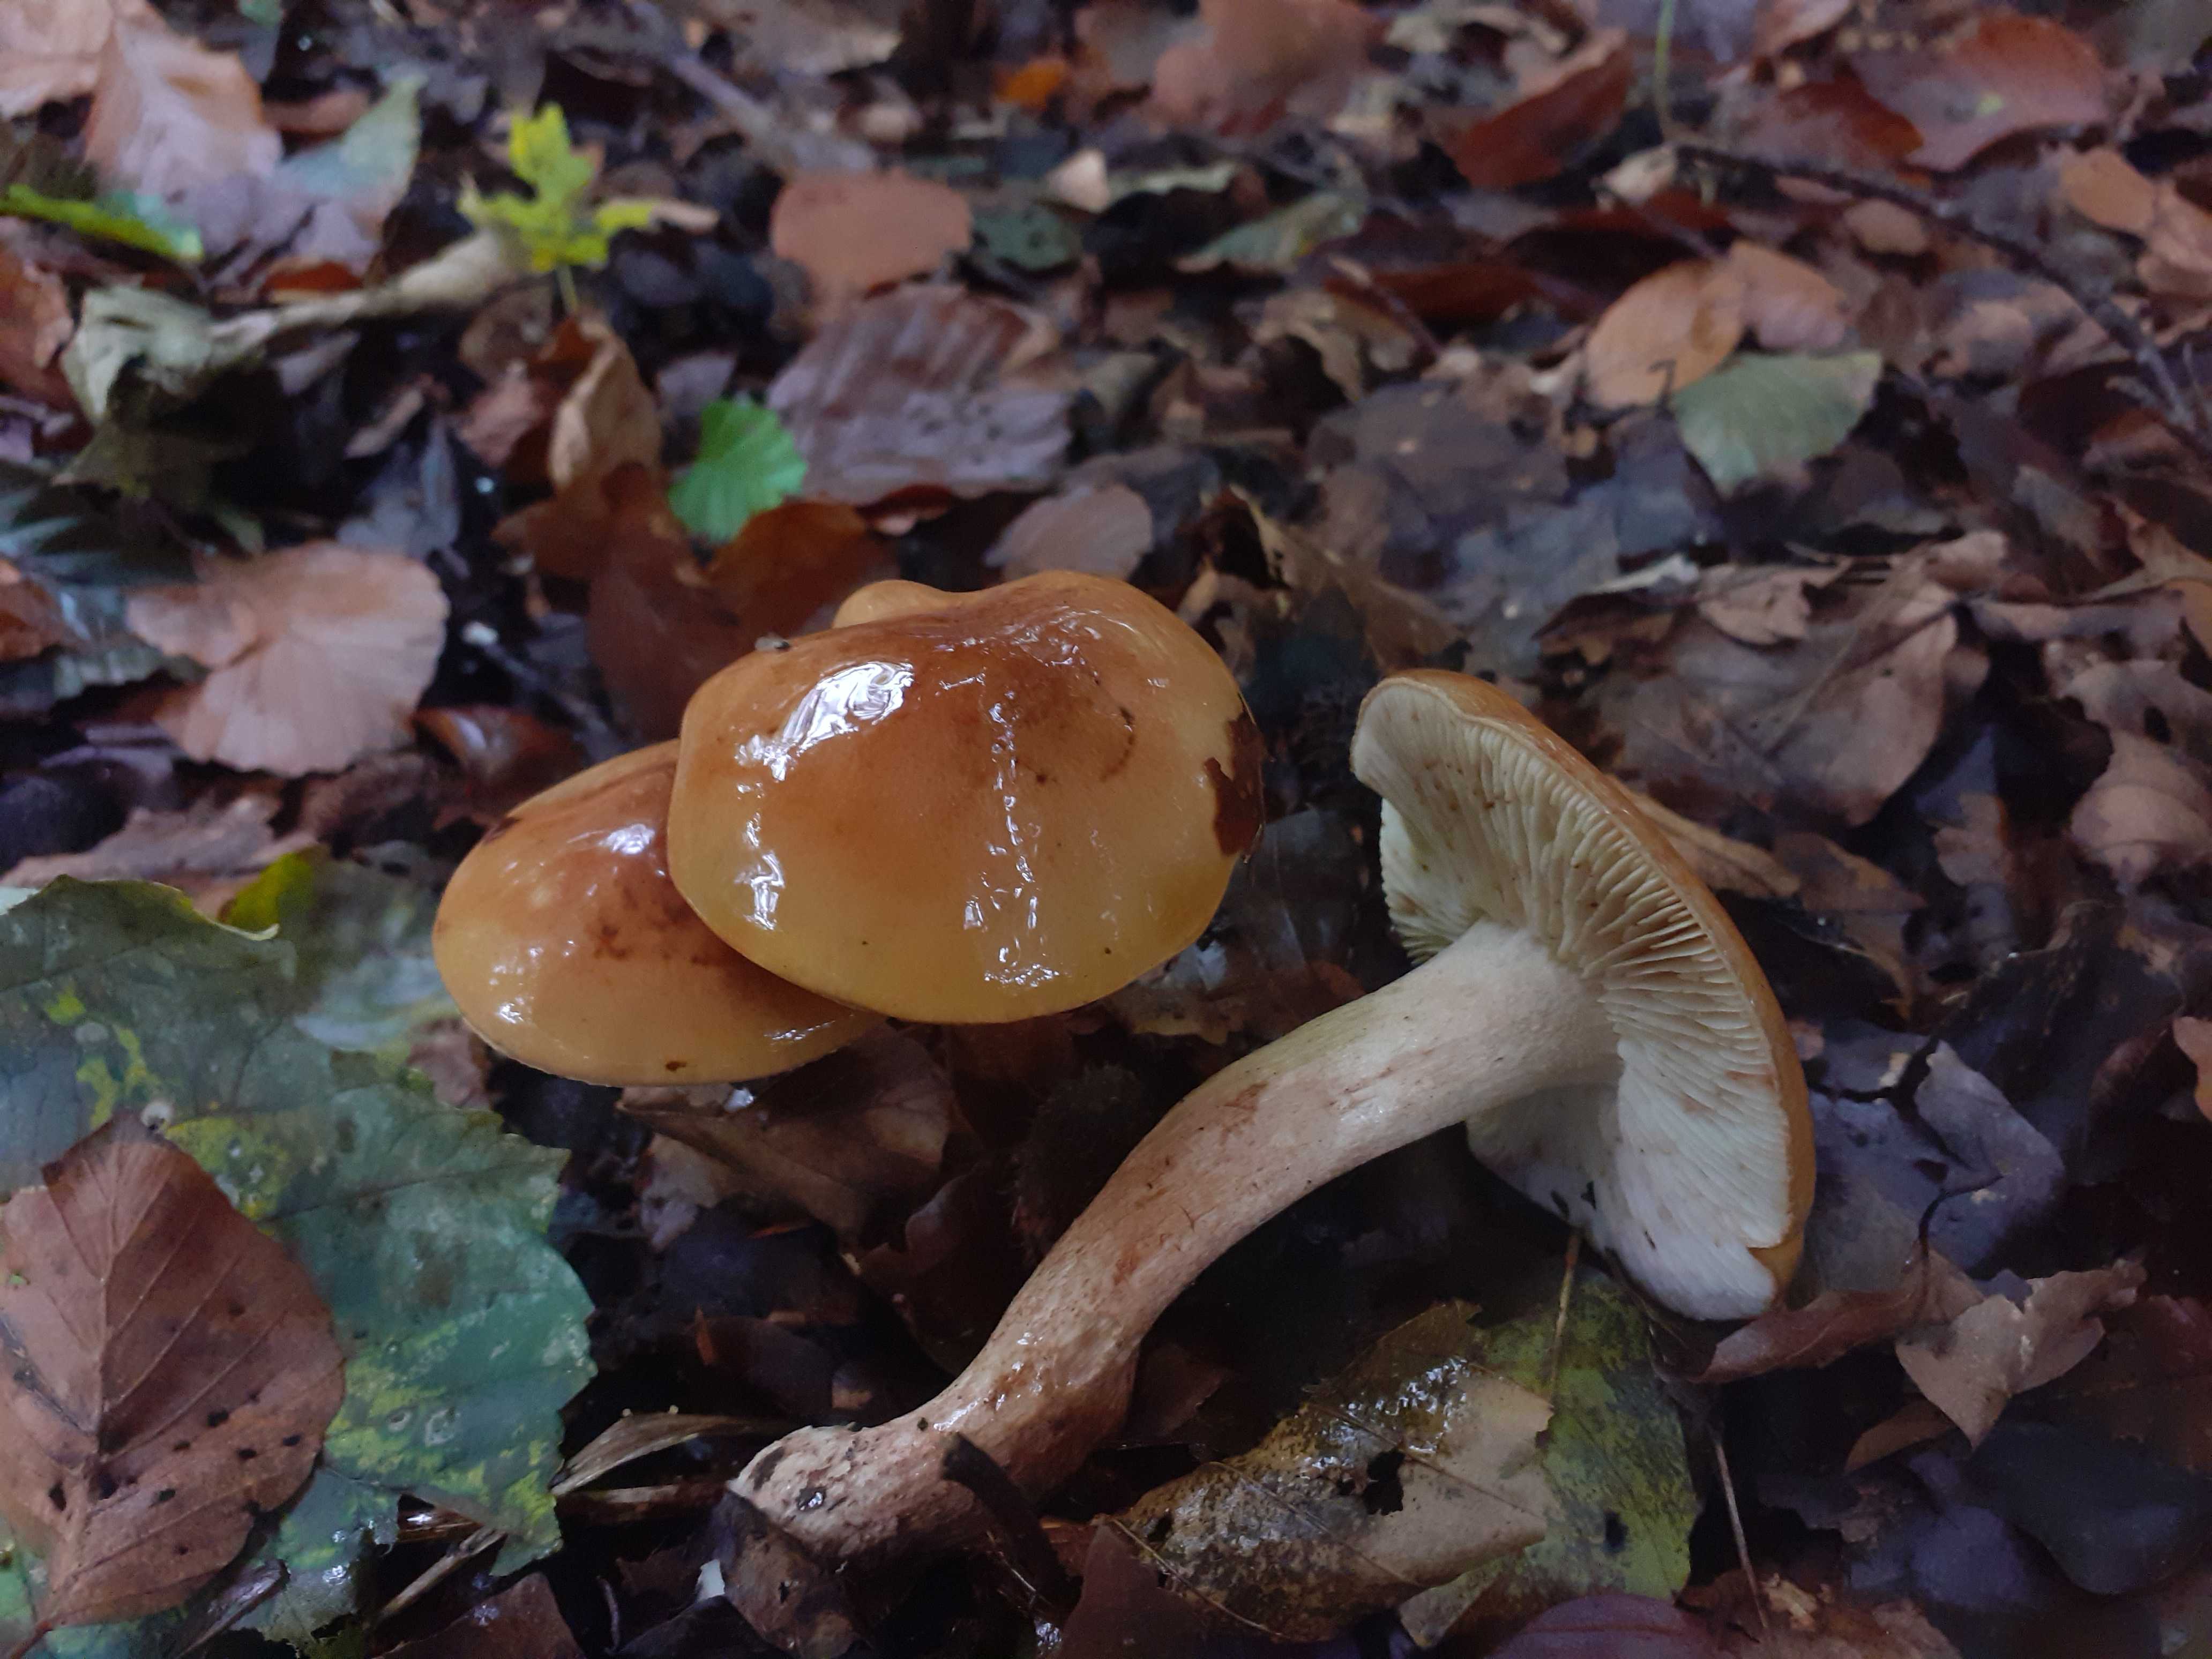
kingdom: Fungi
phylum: Basidiomycota
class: Agaricomycetes
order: Agaricales
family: Tricholomataceae
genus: Tricholoma
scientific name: Tricholoma ustale
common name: sveden ridderhat
